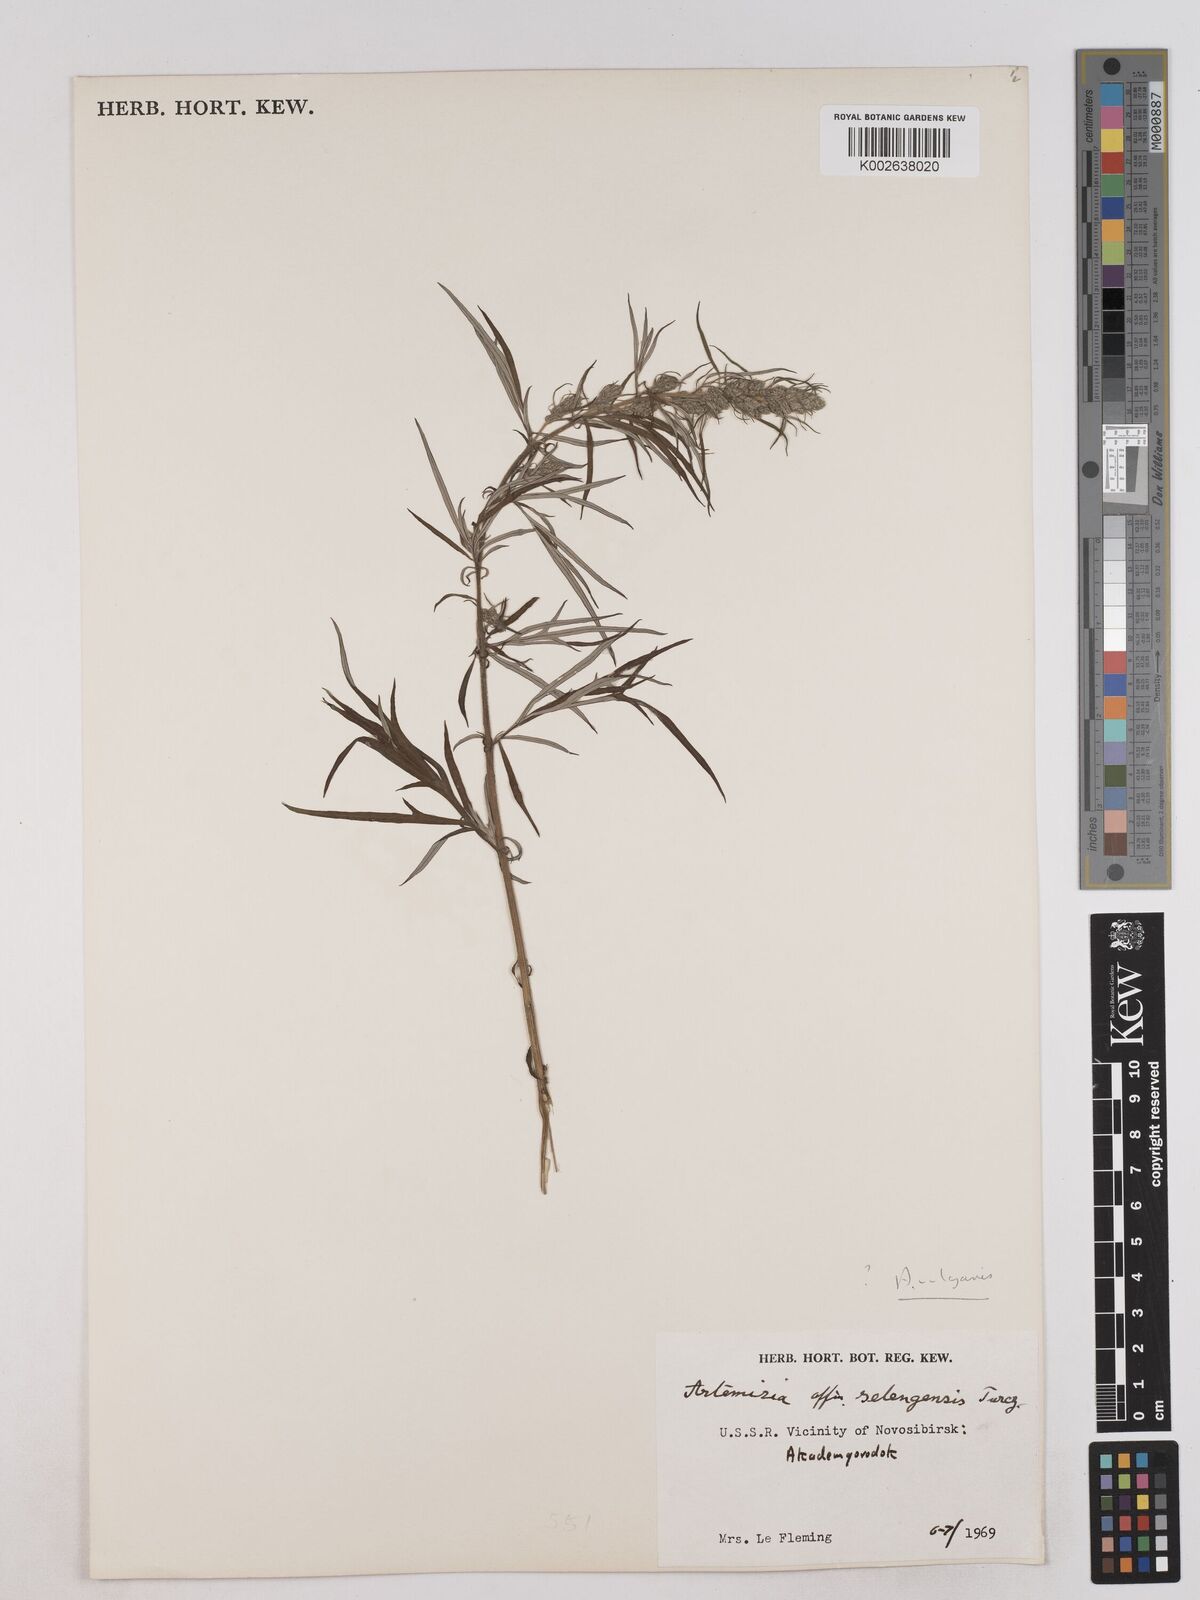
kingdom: Plantae
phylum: Tracheophyta
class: Magnoliopsida
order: Asterales
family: Asteraceae
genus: Artemisia
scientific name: Artemisia selengensis
